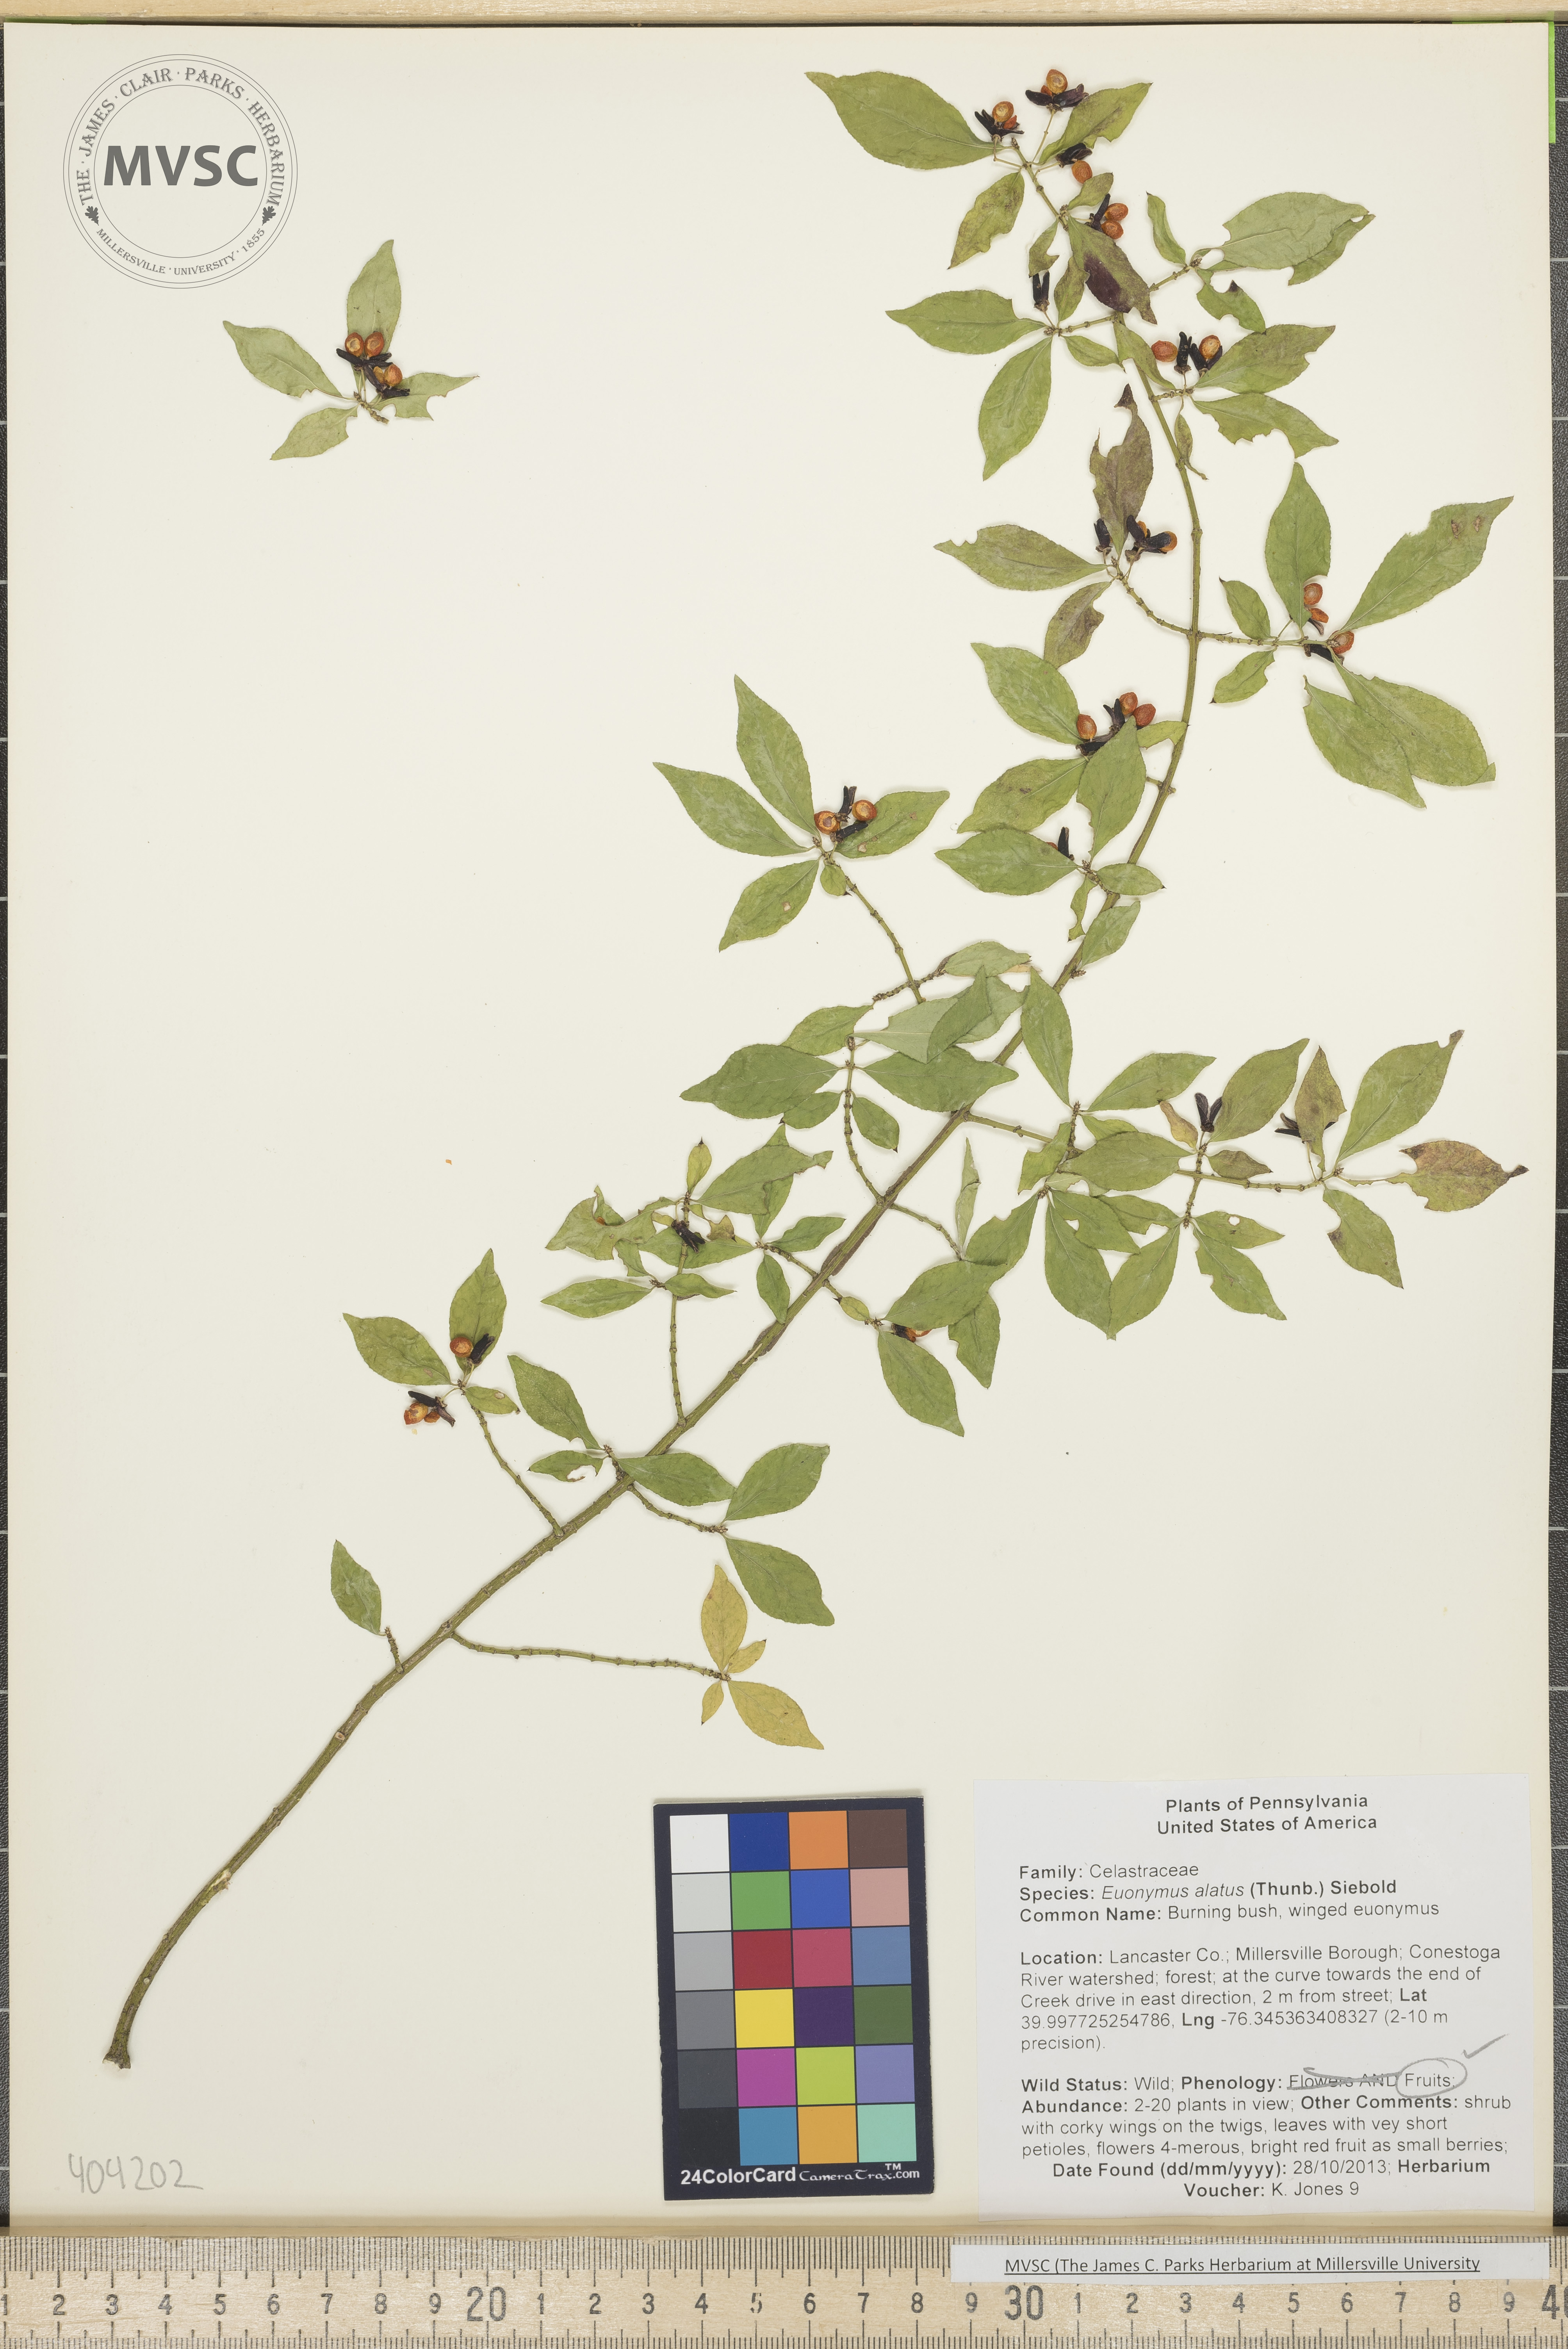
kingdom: Plantae
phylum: Tracheophyta
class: Magnoliopsida
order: Celastrales
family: Celastraceae
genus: Euonymus
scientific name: Euonymus alatus
